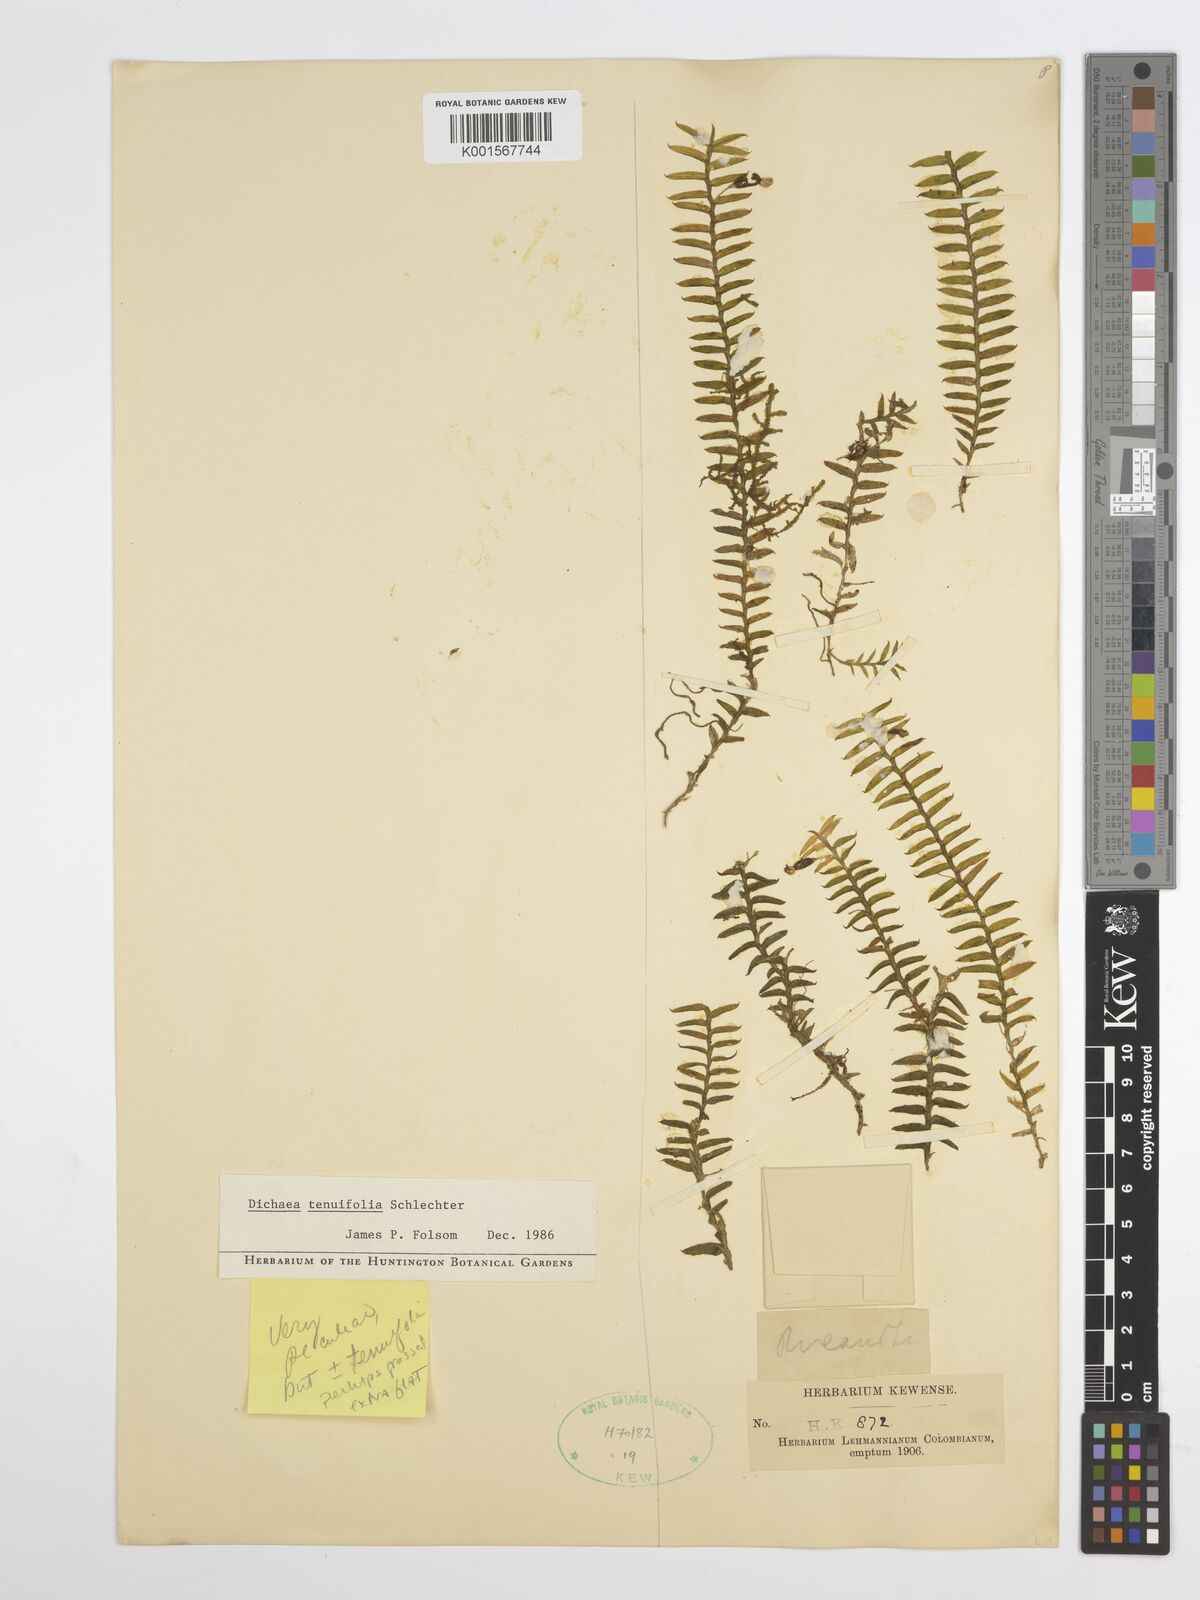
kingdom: Plantae
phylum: Tracheophyta
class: Liliopsida
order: Asparagales
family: Orchidaceae
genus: Dichaea
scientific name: Dichaea tenuifolia
